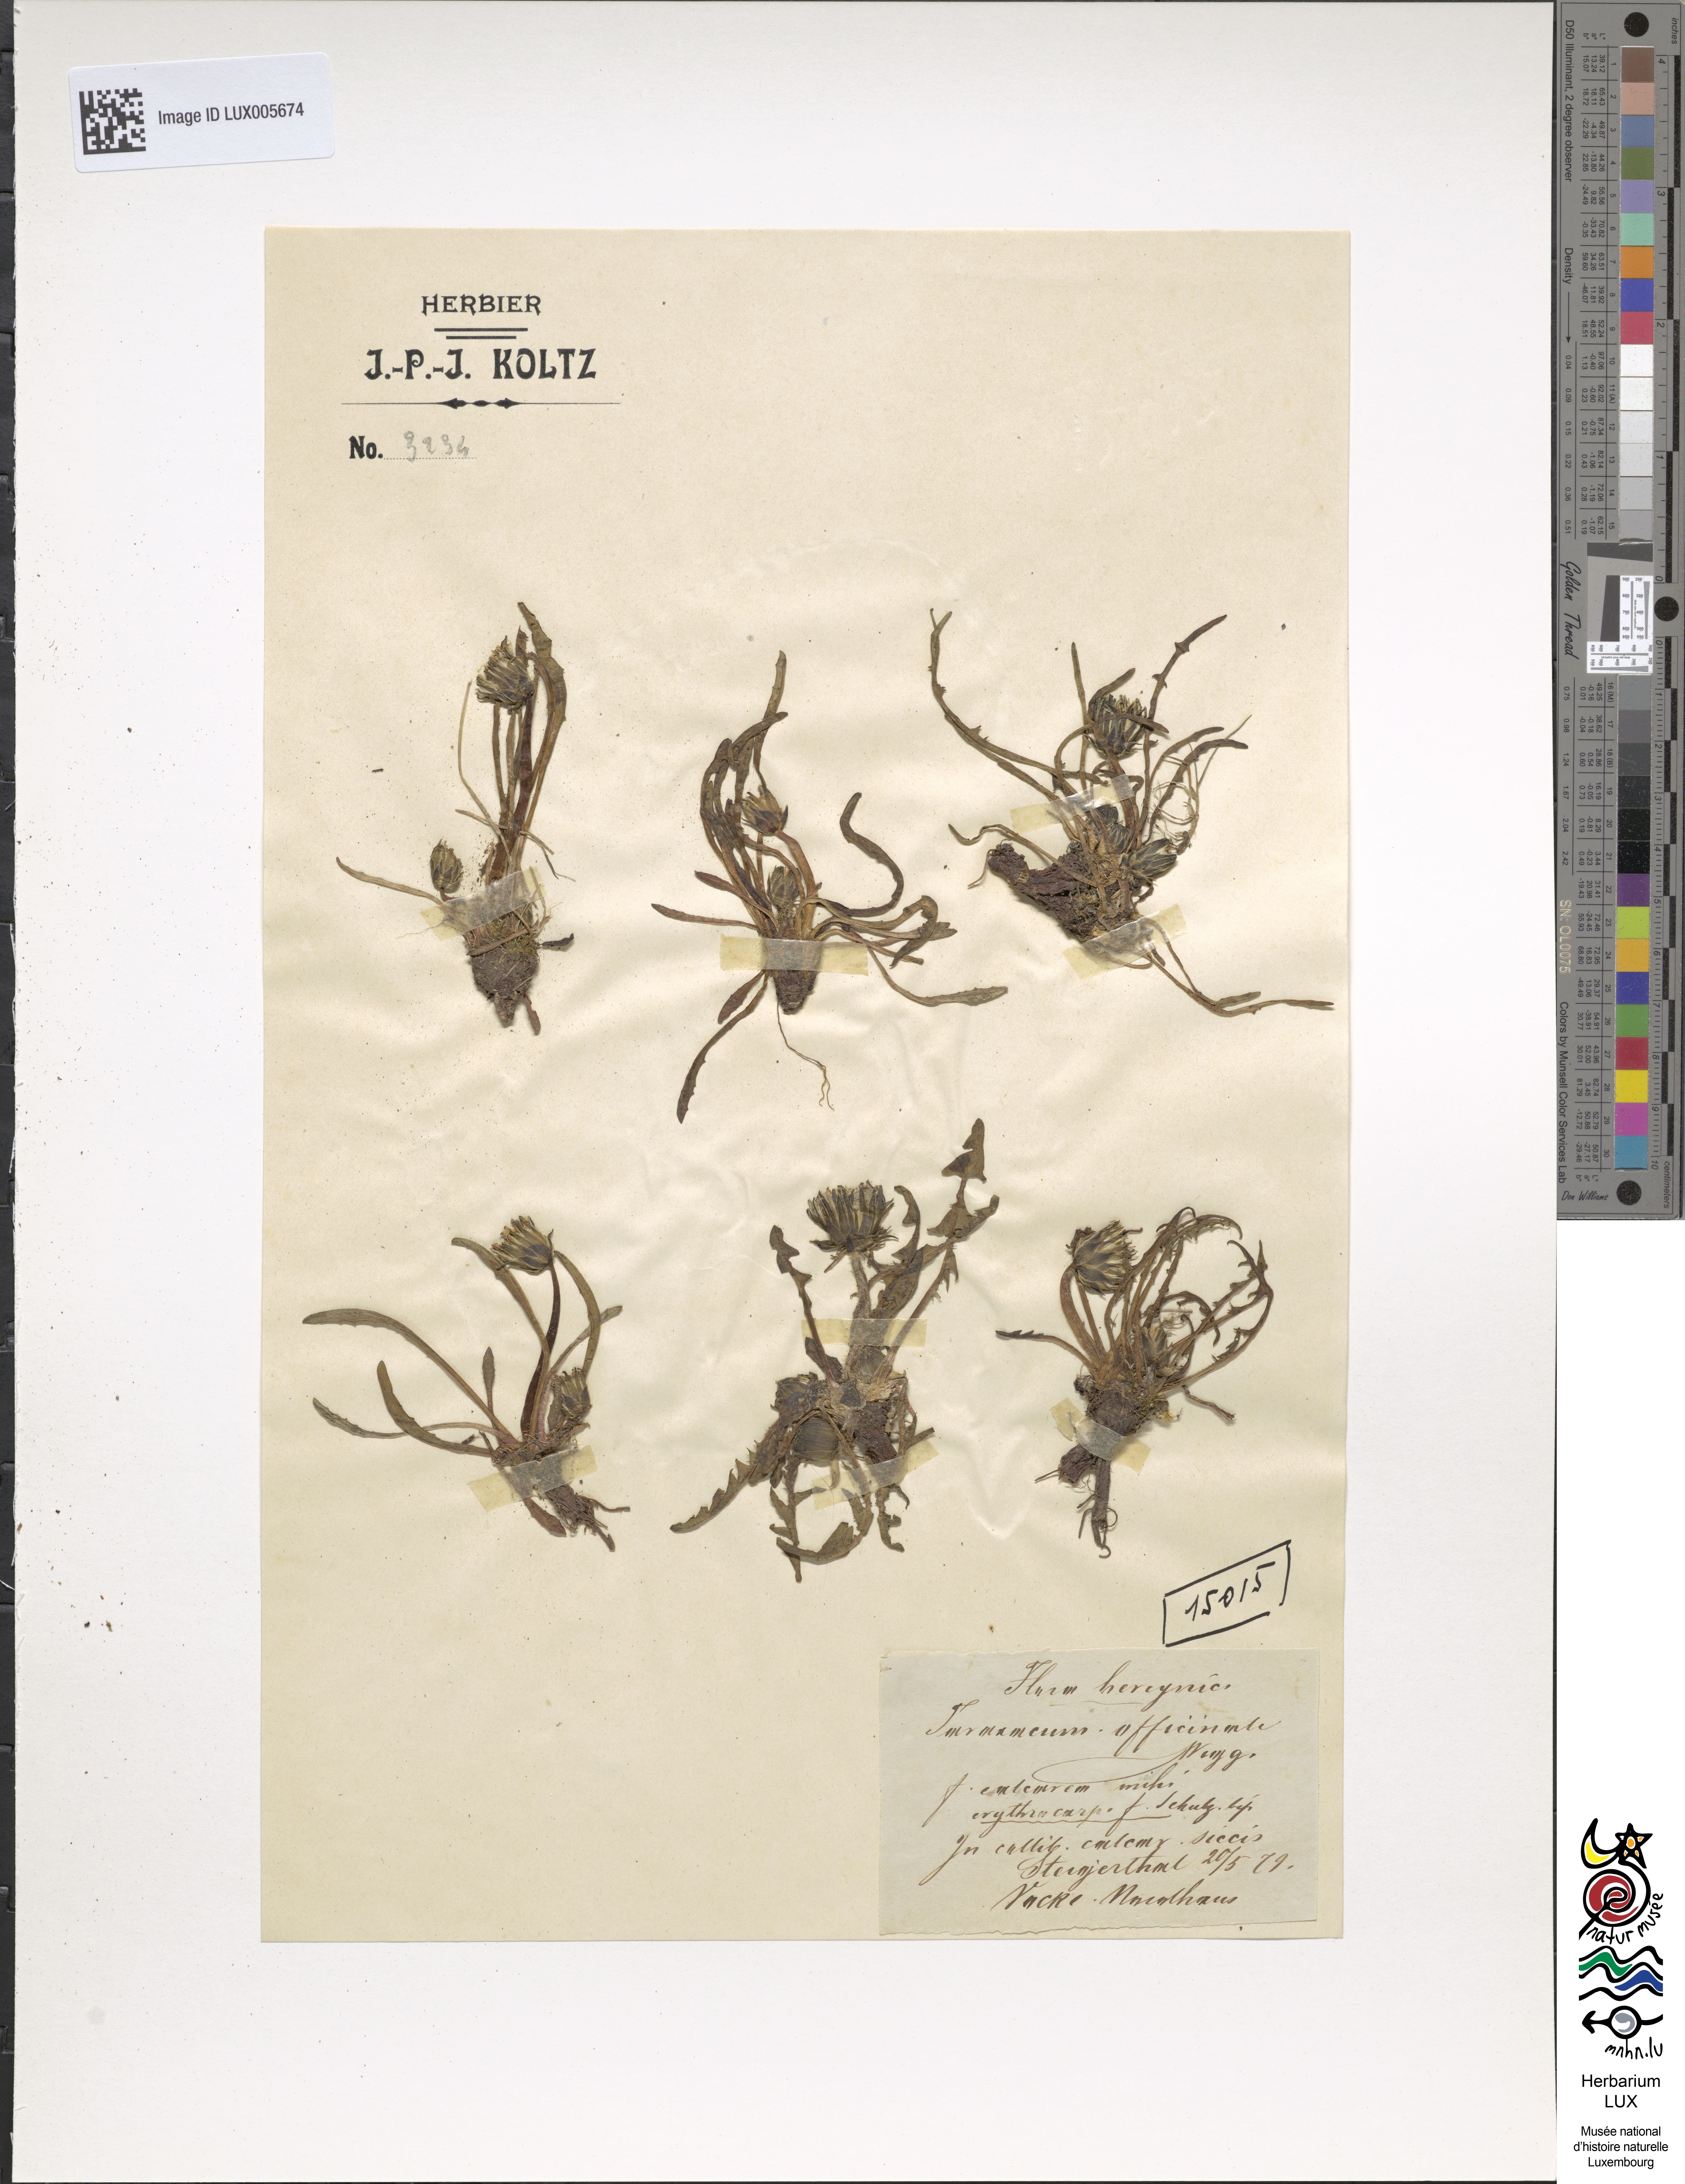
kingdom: Plantae
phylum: Tracheophyta
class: Magnoliopsida
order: Asterales
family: Asteraceae
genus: Taraxacum
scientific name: Taraxacum
